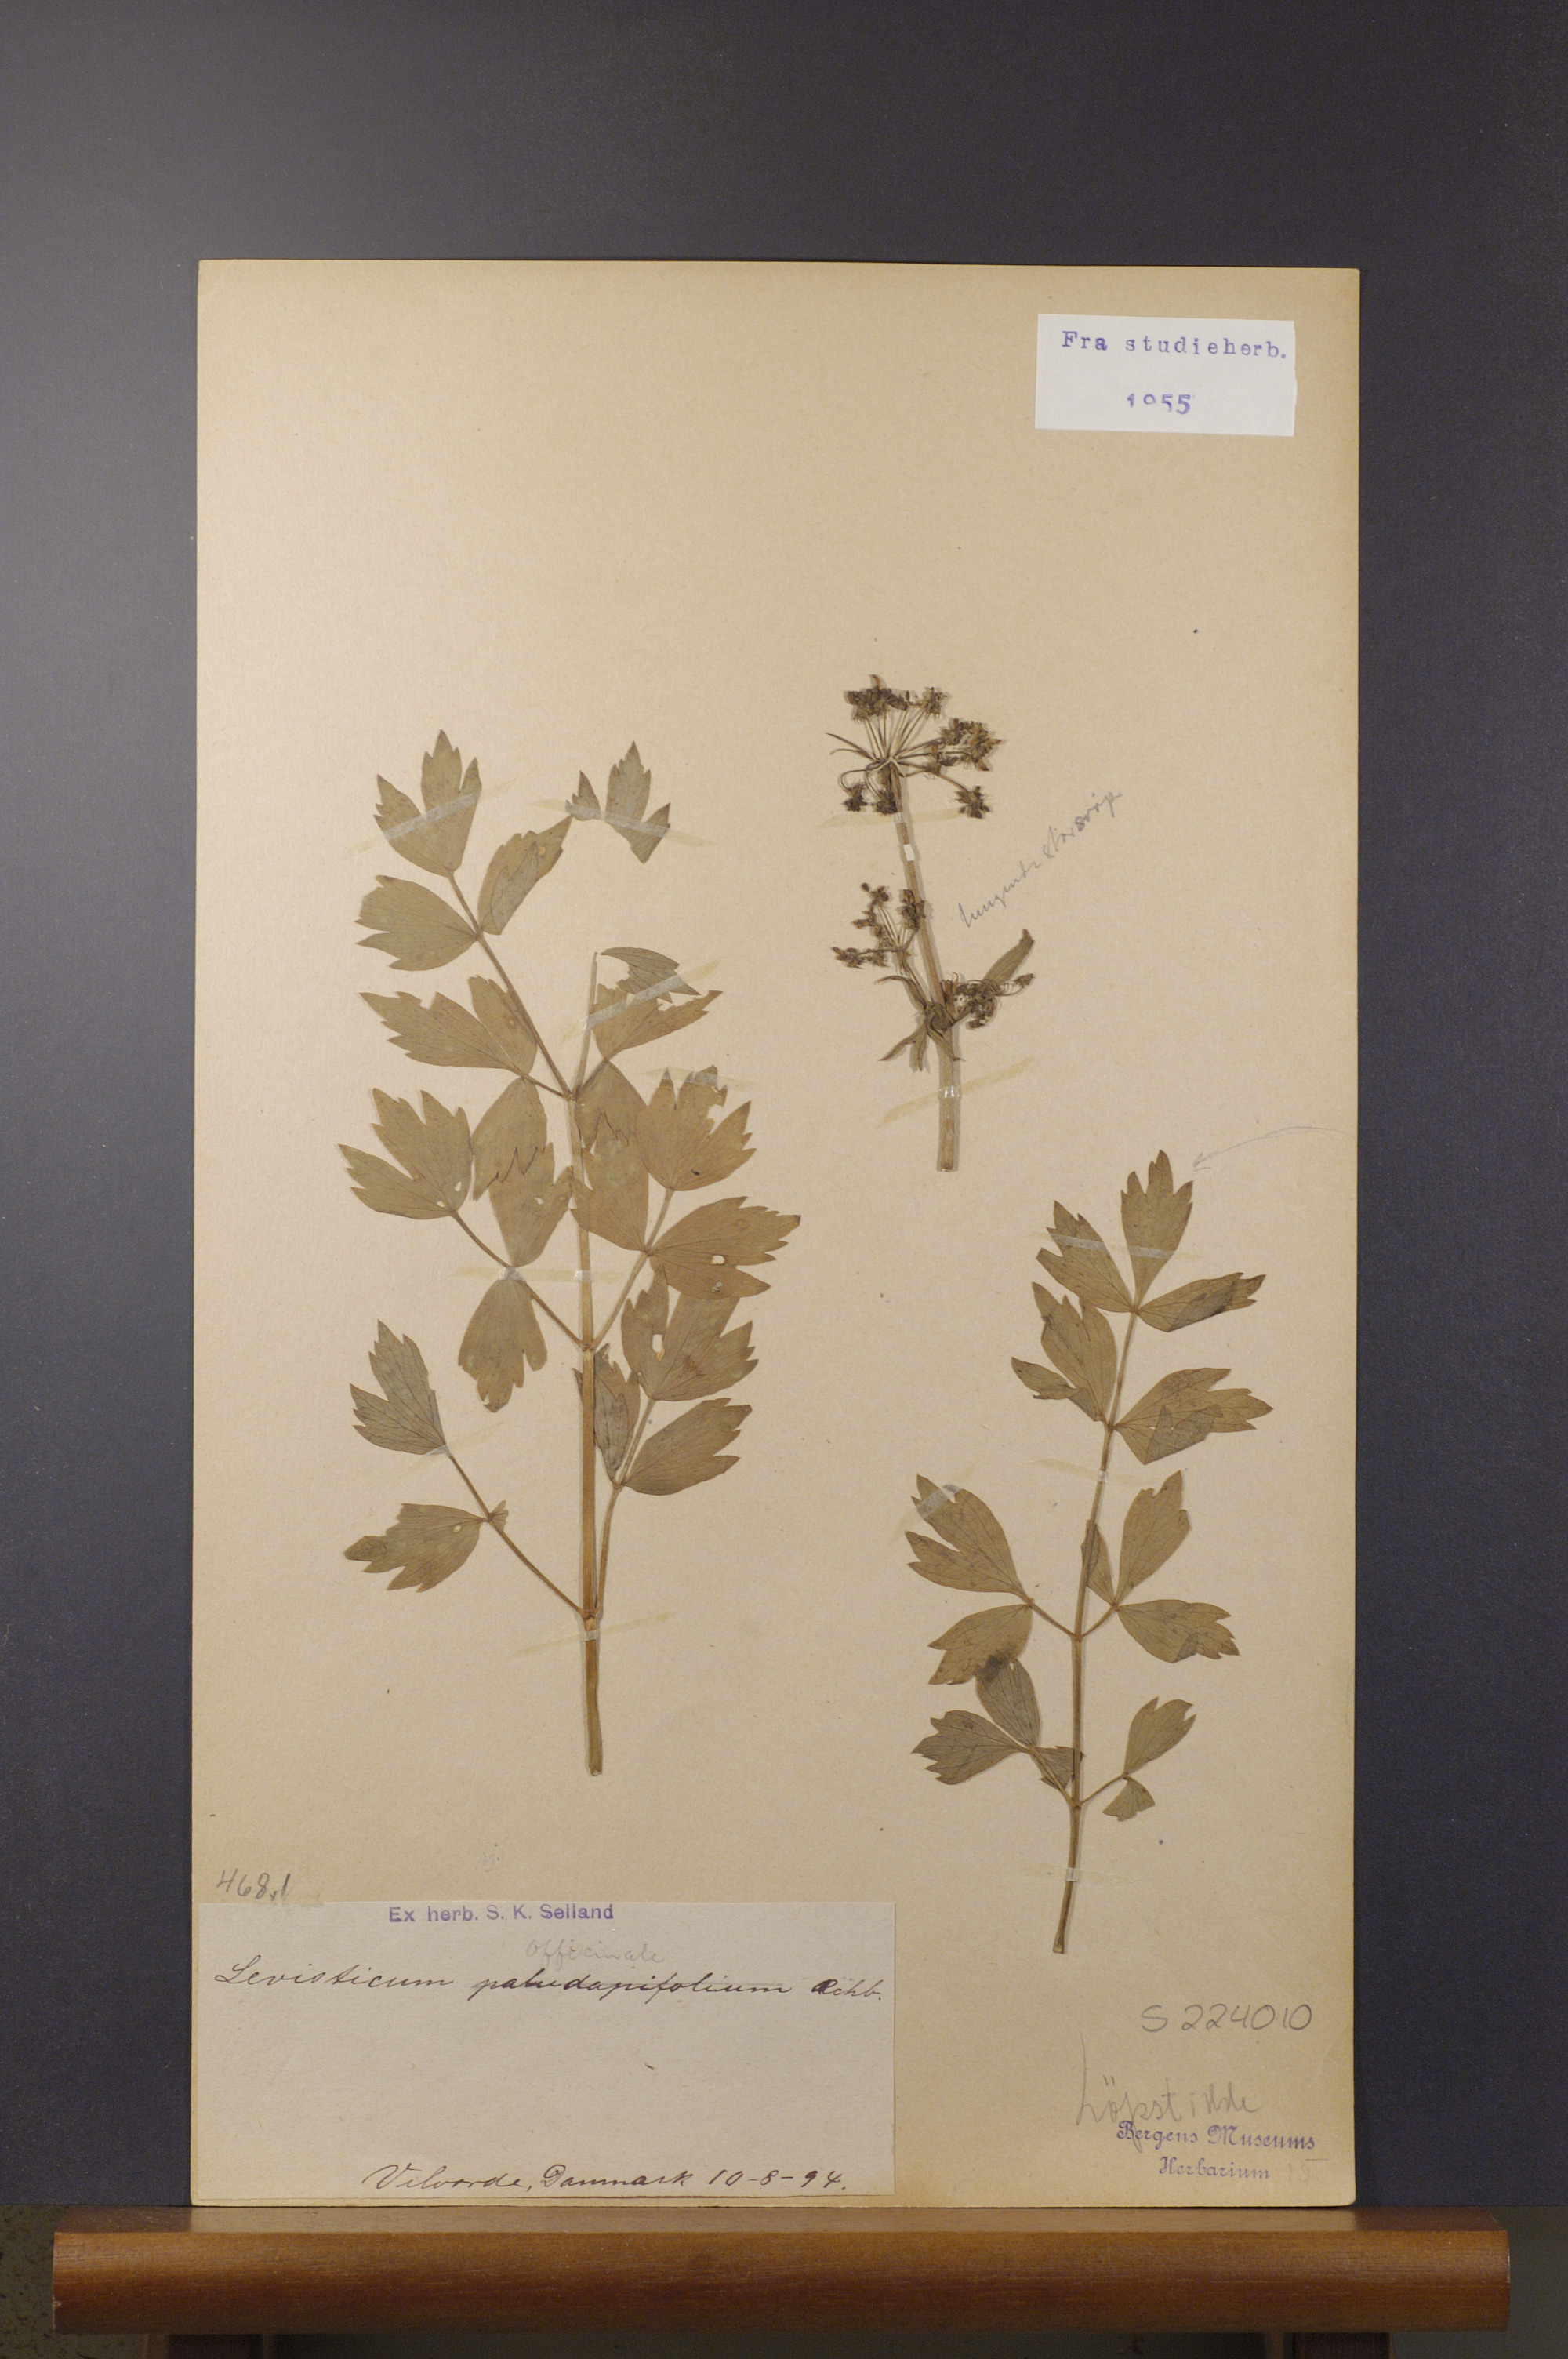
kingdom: Plantae
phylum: Tracheophyta
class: Magnoliopsida
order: Apiales
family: Apiaceae
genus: Levisticum
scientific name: Levisticum officinale
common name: Lovage
